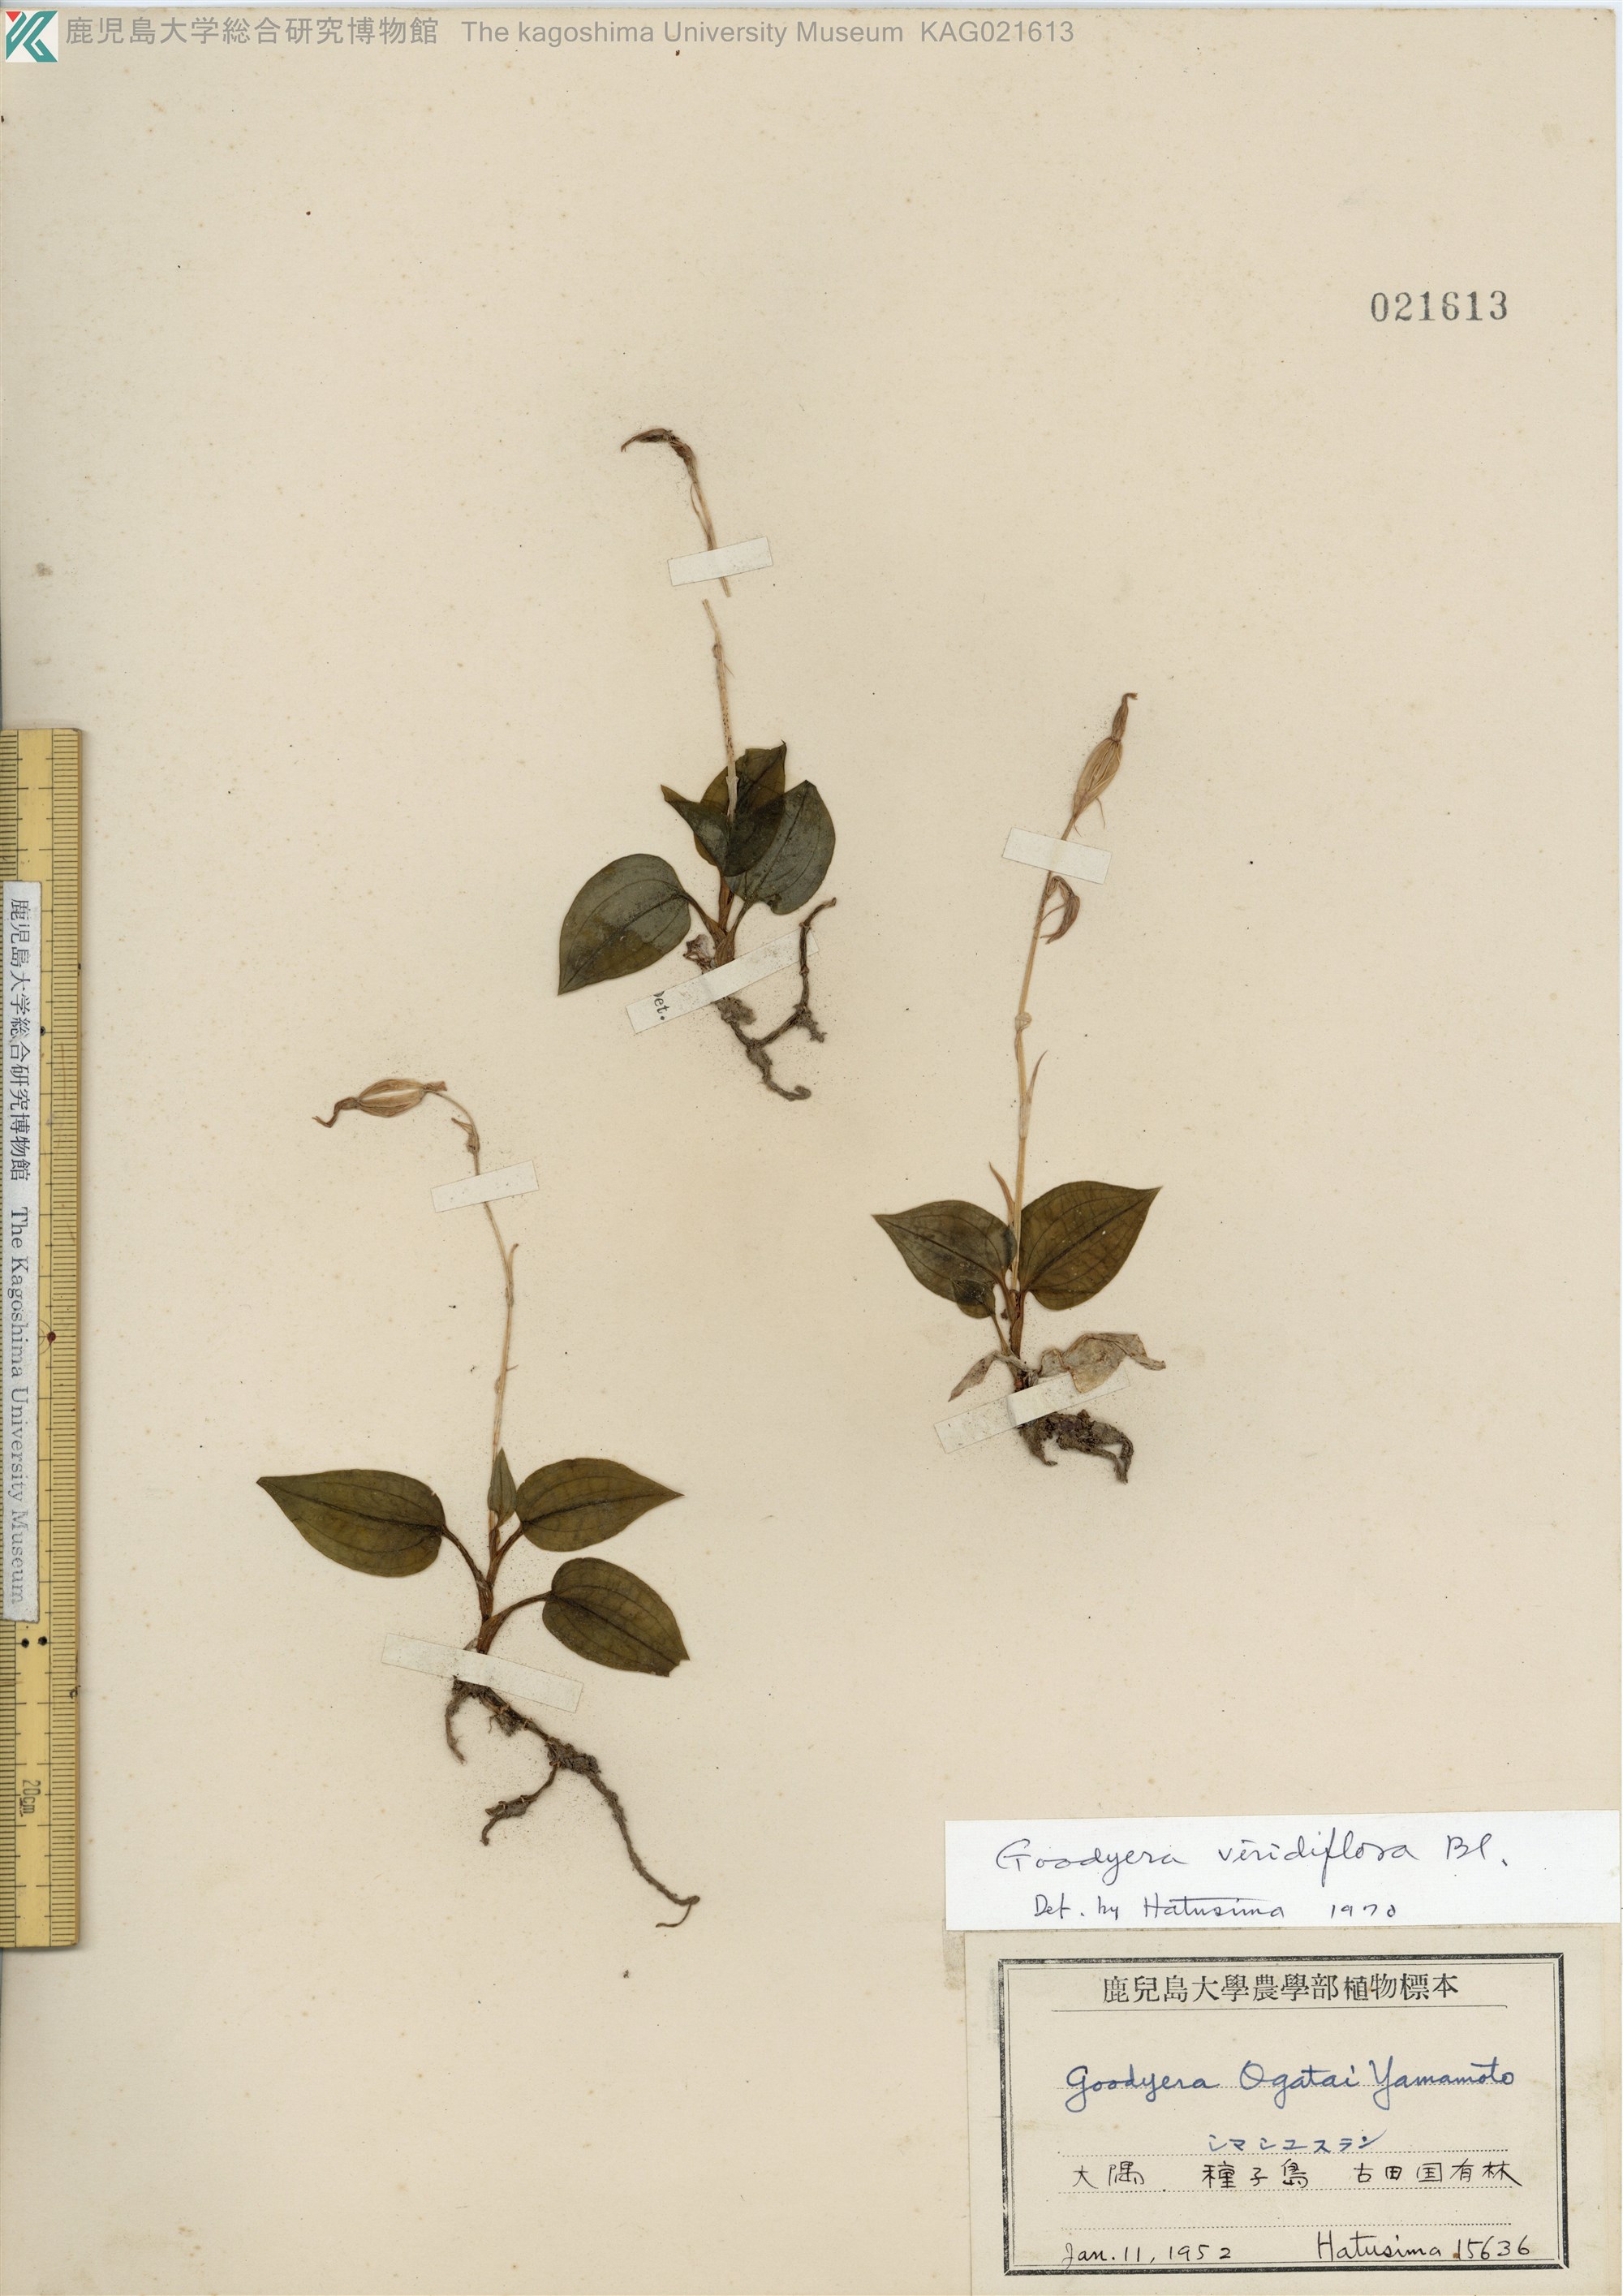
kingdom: Plantae
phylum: Tracheophyta
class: Liliopsida
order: Asparagales
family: Orchidaceae
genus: Goodyera
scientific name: Goodyera viridiflora
